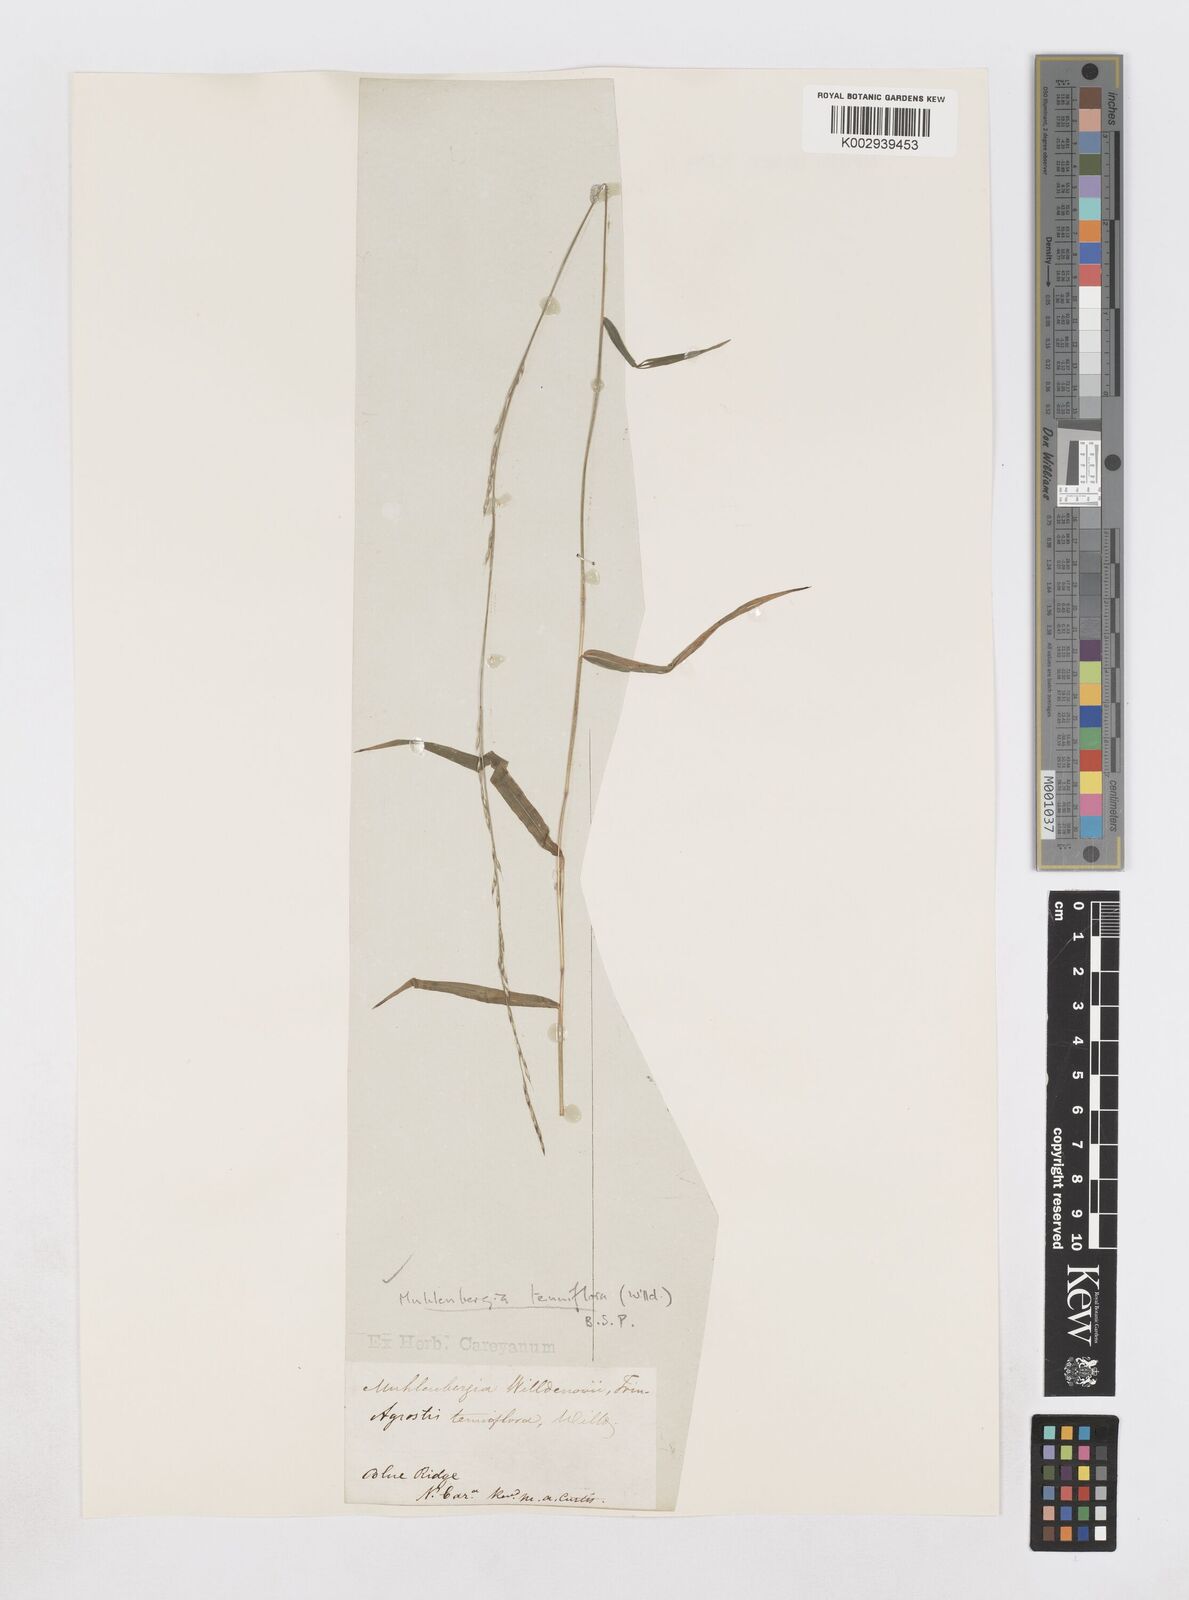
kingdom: Plantae
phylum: Tracheophyta
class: Liliopsida
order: Poales
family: Poaceae
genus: Muhlenbergia
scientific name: Muhlenbergia tenuiflora
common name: Slender muhly
